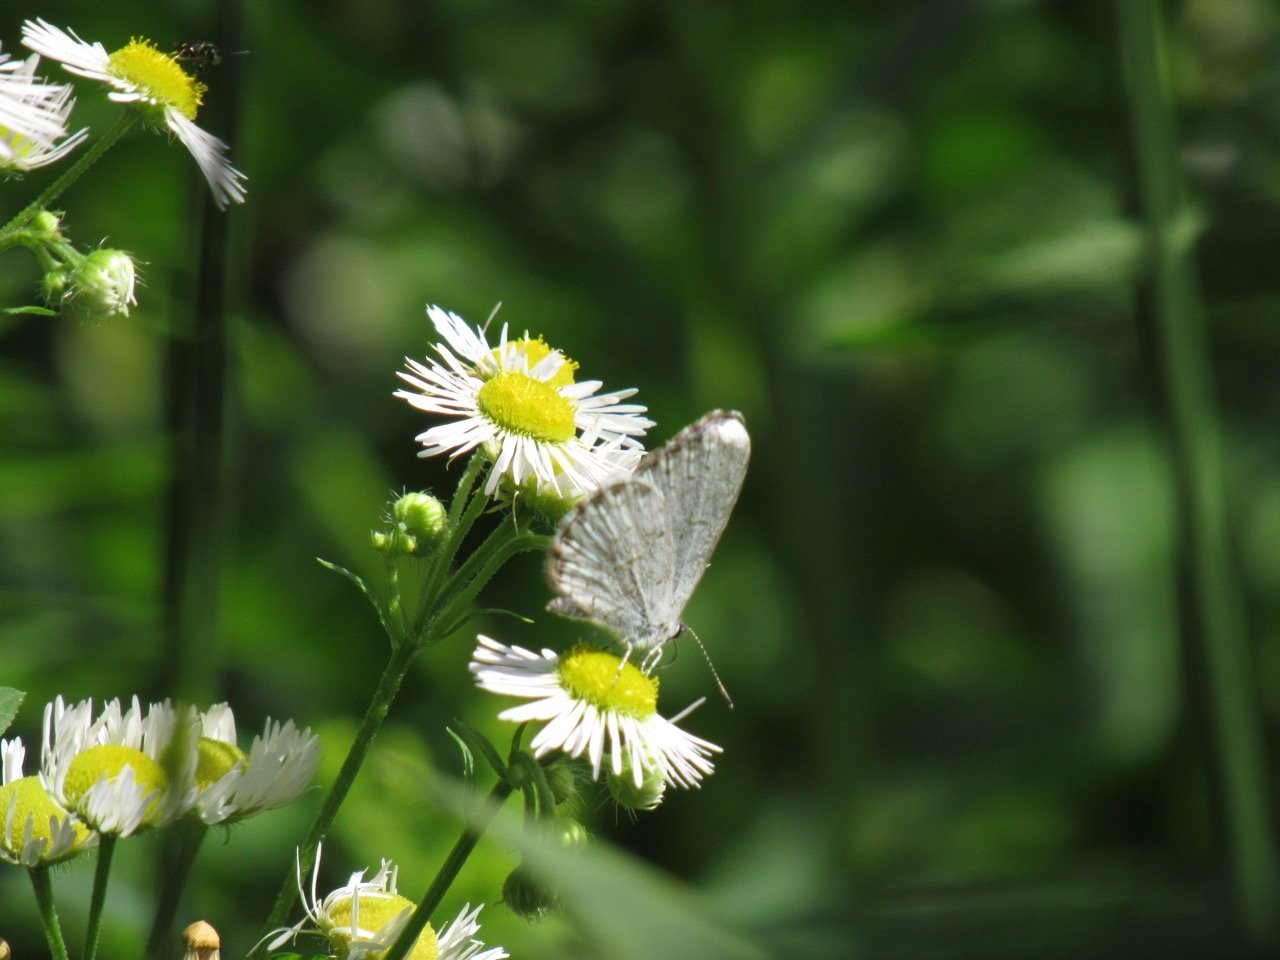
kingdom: Animalia
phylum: Arthropoda
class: Insecta
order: Lepidoptera
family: Lycaenidae
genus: Celastrina
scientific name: Celastrina
